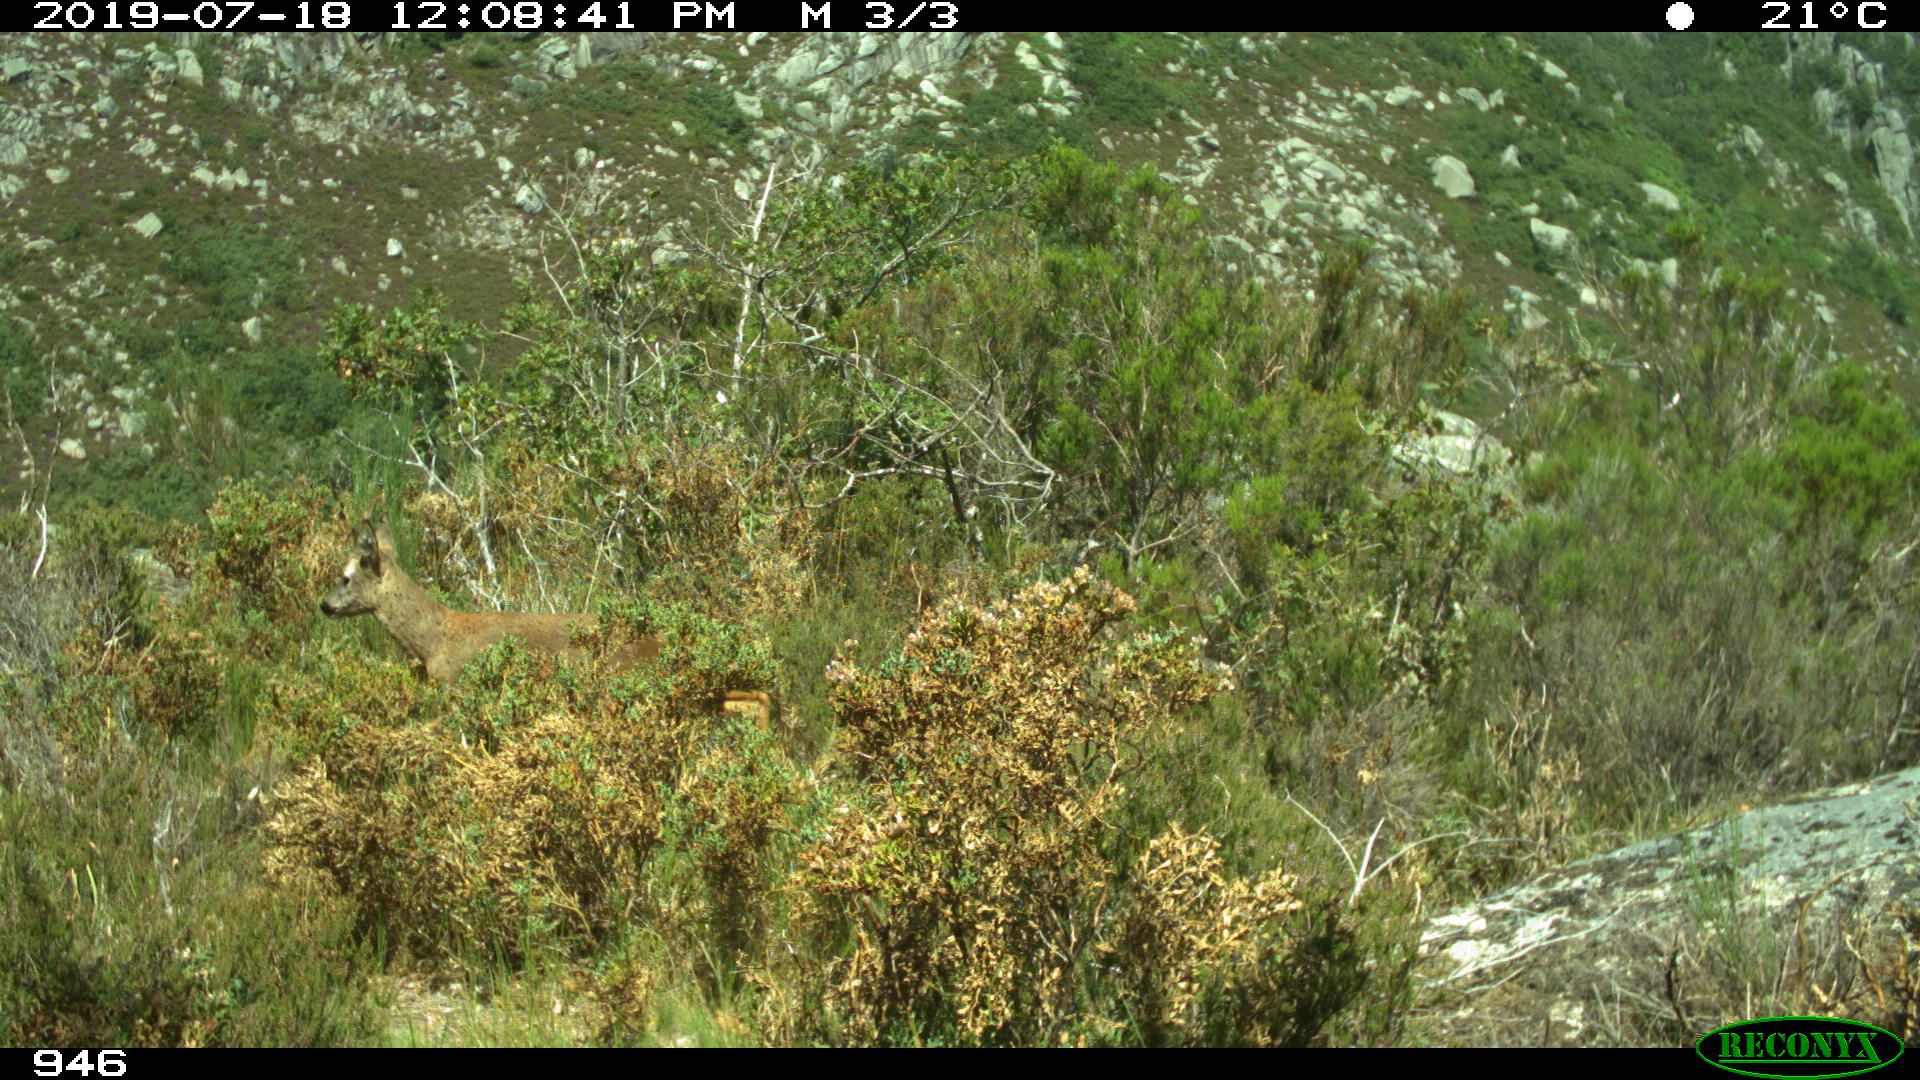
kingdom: Animalia
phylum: Chordata
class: Mammalia
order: Artiodactyla
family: Cervidae
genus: Capreolus
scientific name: Capreolus capreolus
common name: Western roe deer
